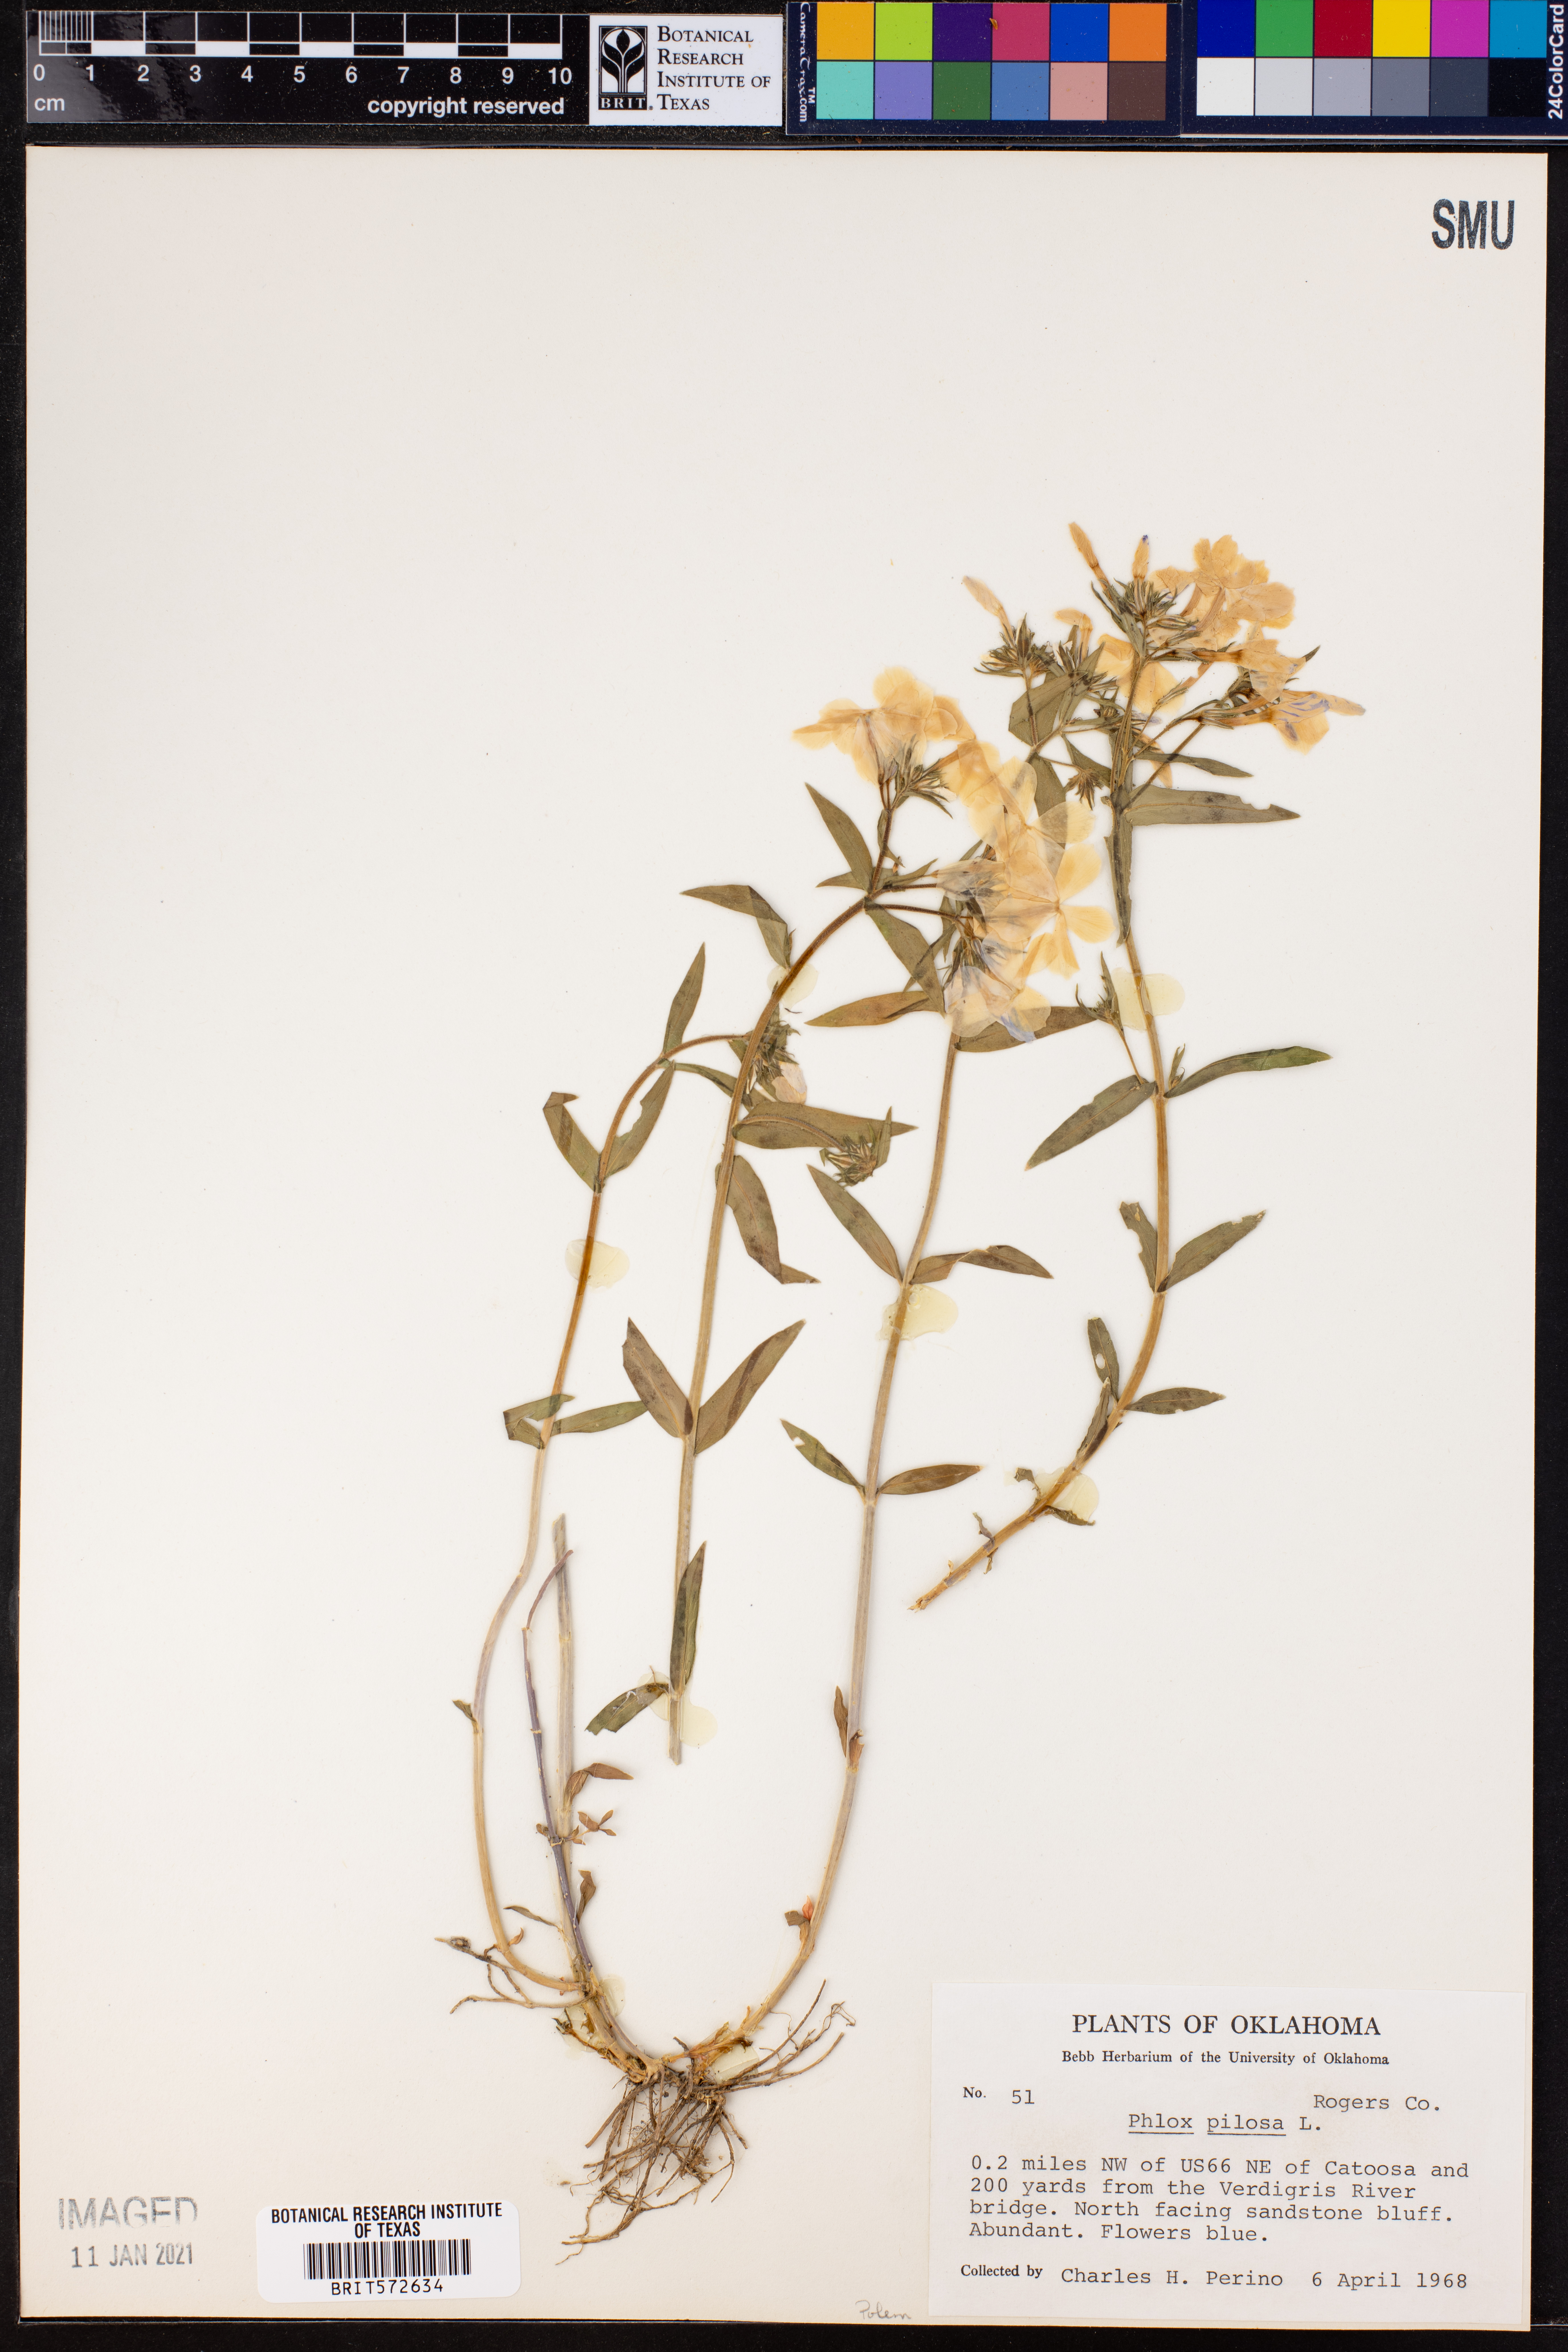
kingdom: Plantae
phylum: Tracheophyta
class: Magnoliopsida
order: Ericales
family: Polemoniaceae
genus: Phlox
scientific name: Phlox pilosa
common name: Prairie phlox
